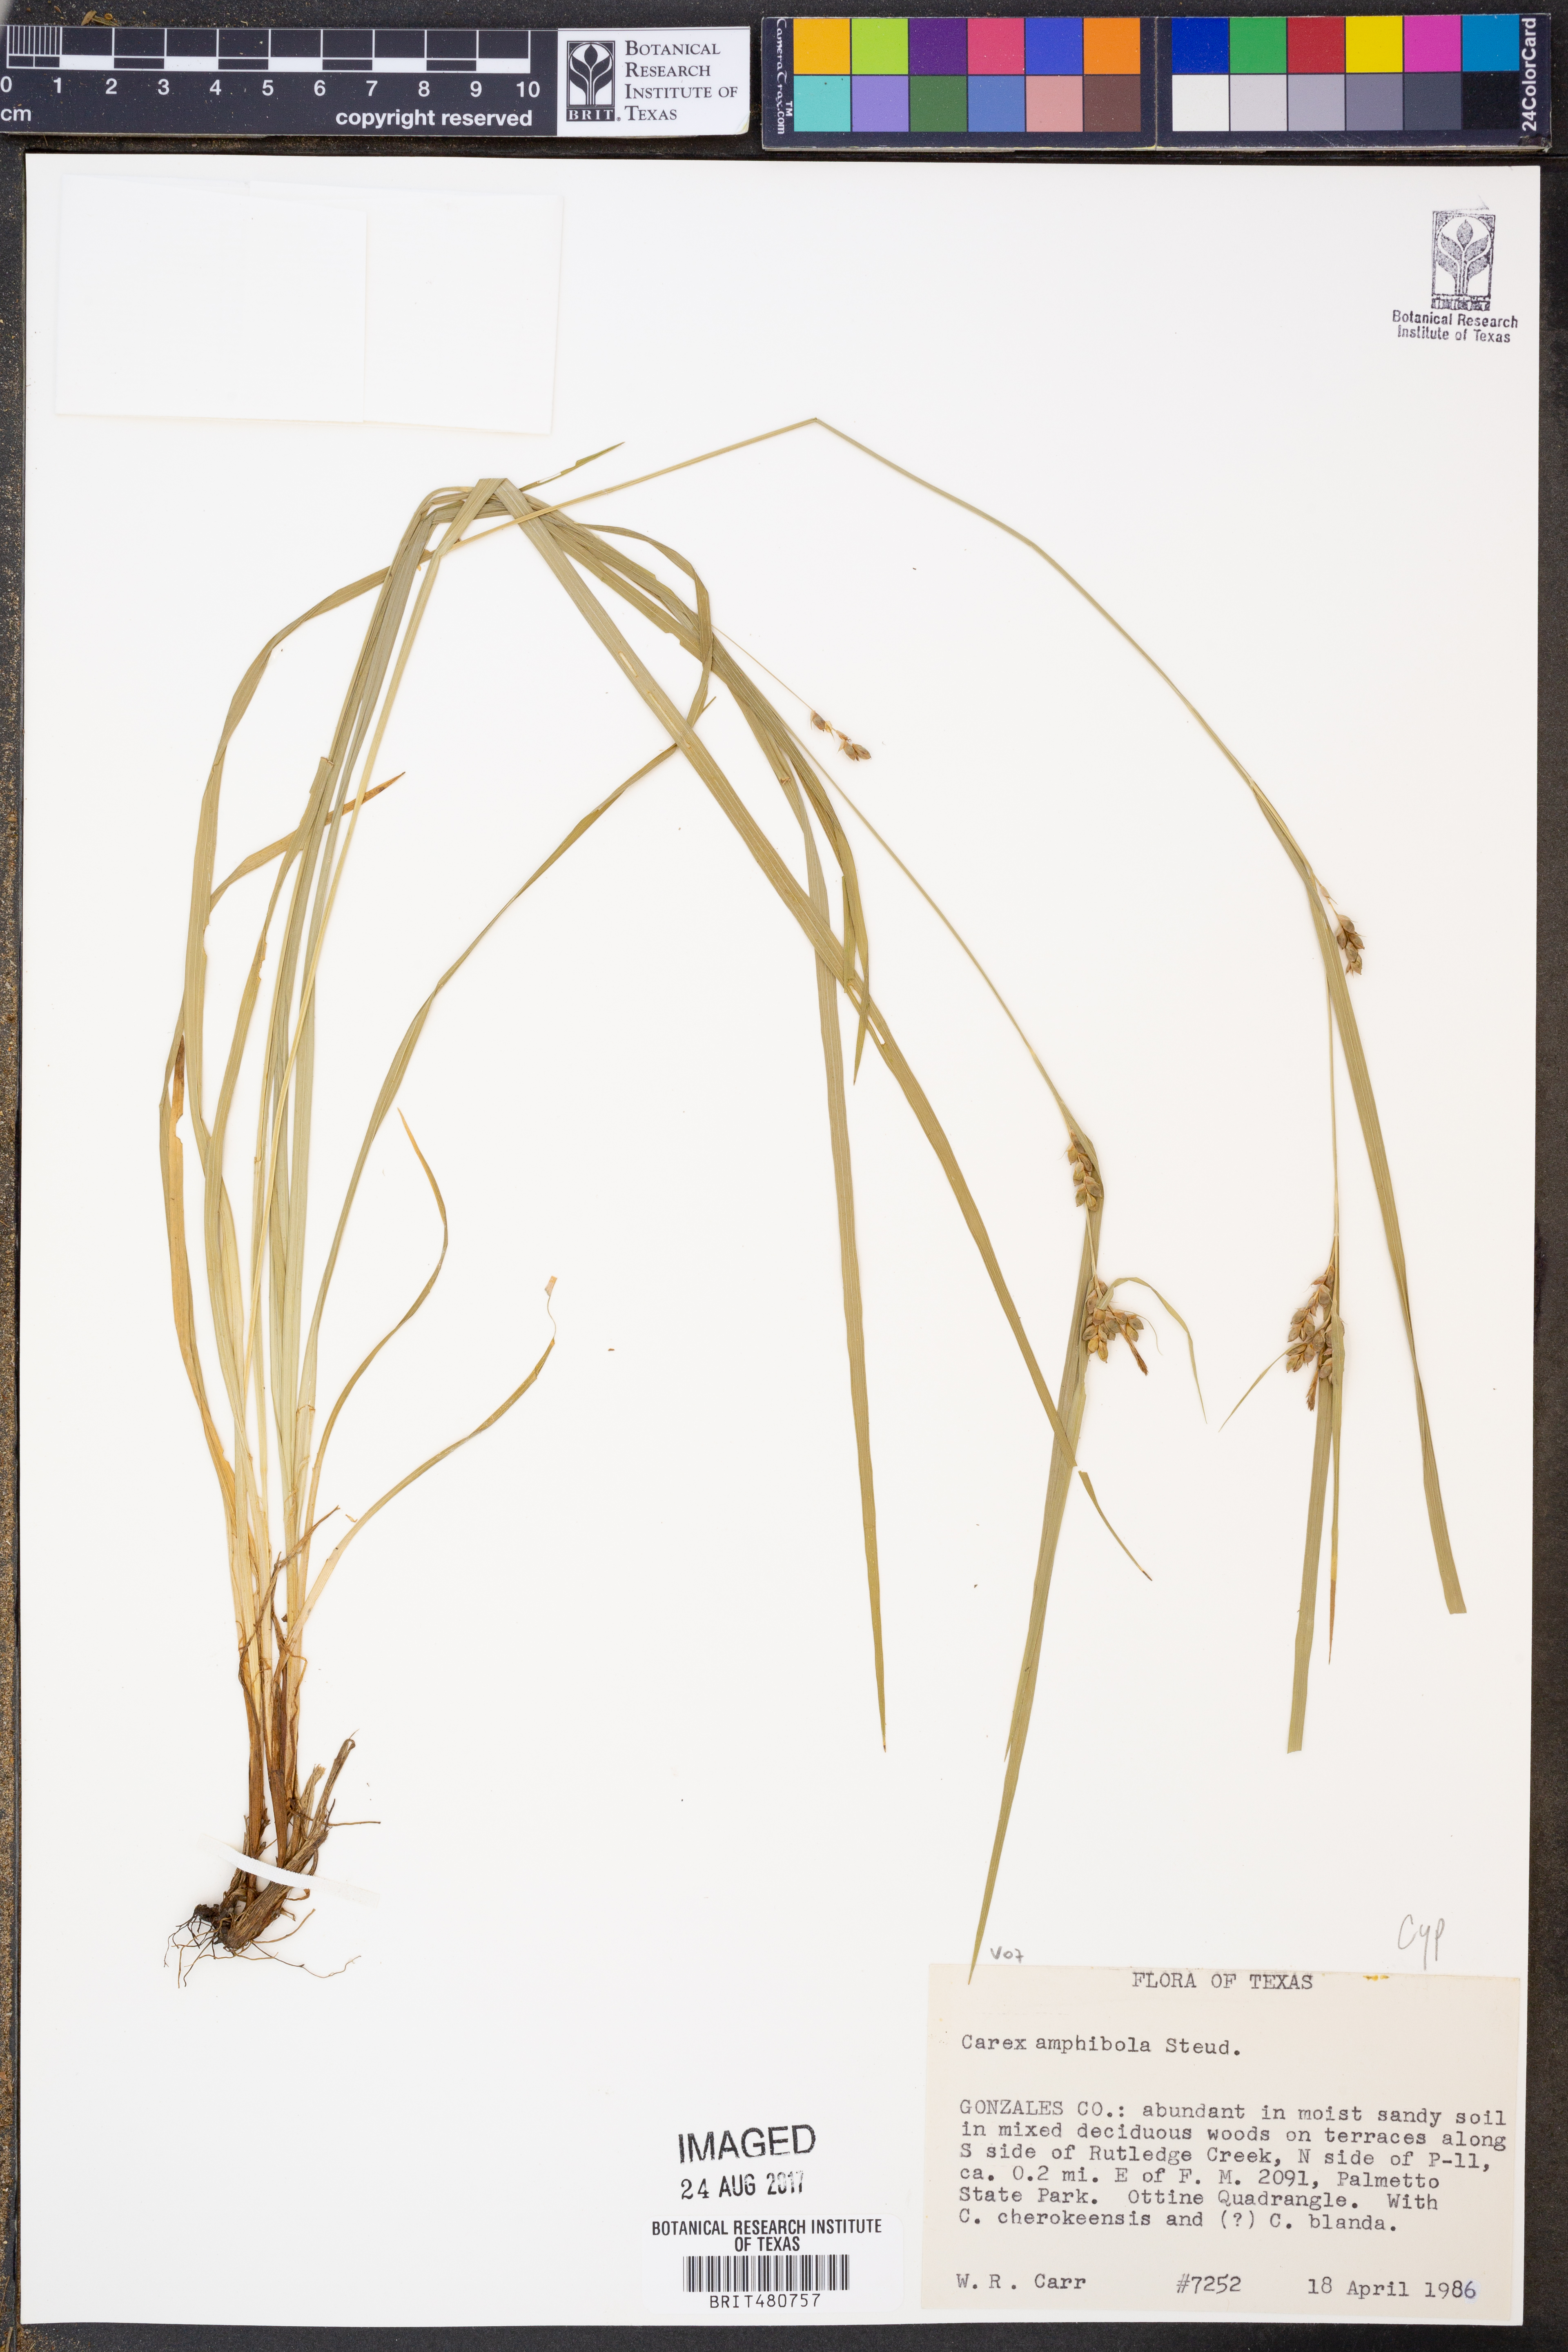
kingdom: Plantae
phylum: Tracheophyta
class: Liliopsida
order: Poales
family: Cyperaceae
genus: Carex
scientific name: Carex amphibola
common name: Amphibious sedge
